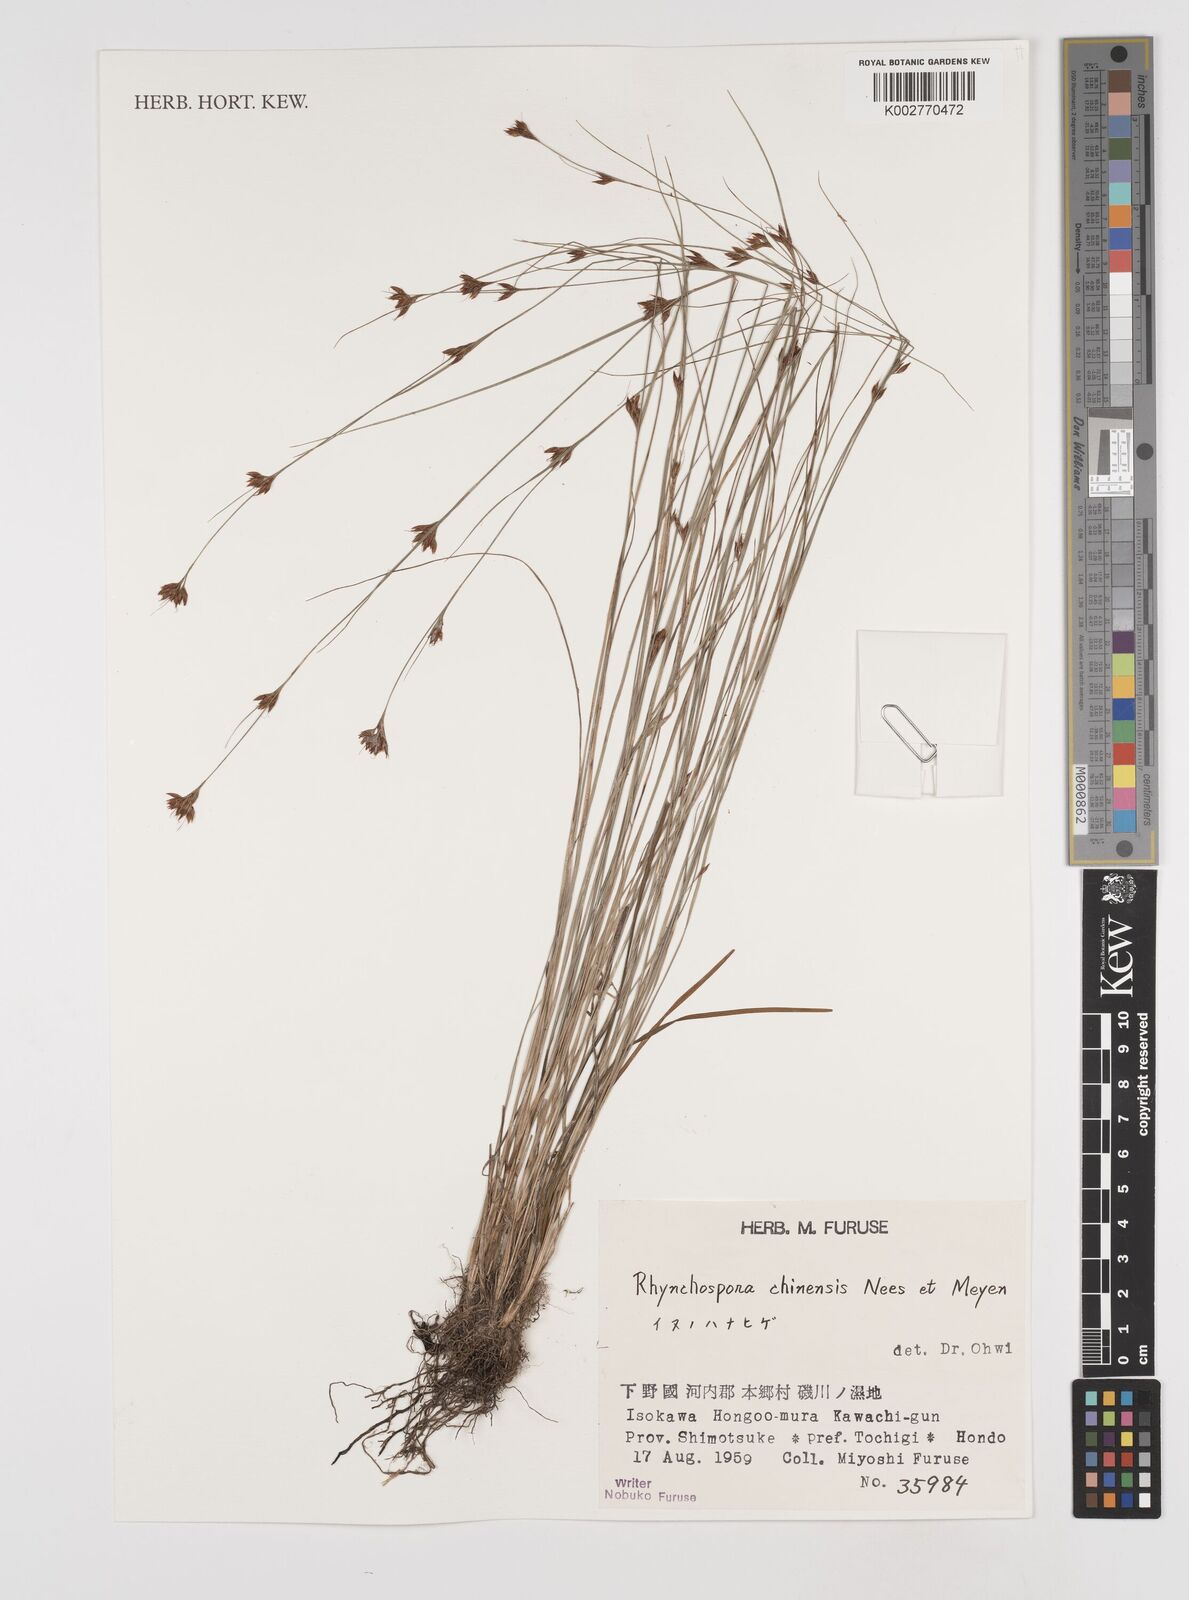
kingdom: Plantae
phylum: Tracheophyta
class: Liliopsida
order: Poales
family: Cyperaceae
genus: Rhynchospora
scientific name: Rhynchospora chinensis
